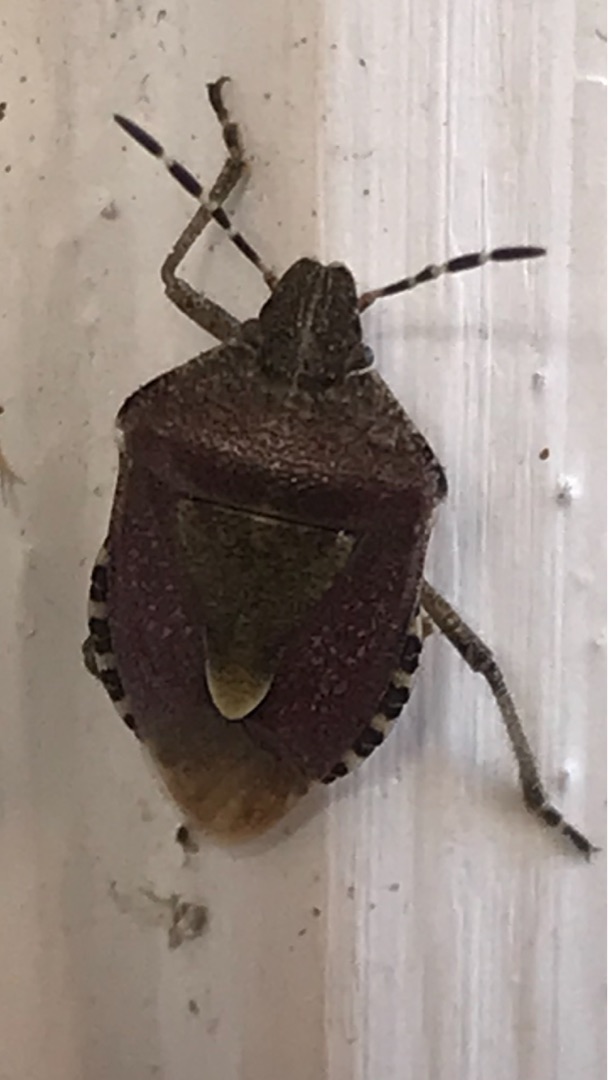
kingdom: Animalia
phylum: Arthropoda
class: Insecta
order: Hemiptera
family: Pentatomidae
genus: Dolycoris
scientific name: Dolycoris baccarum
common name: Almindelig bærtæge
